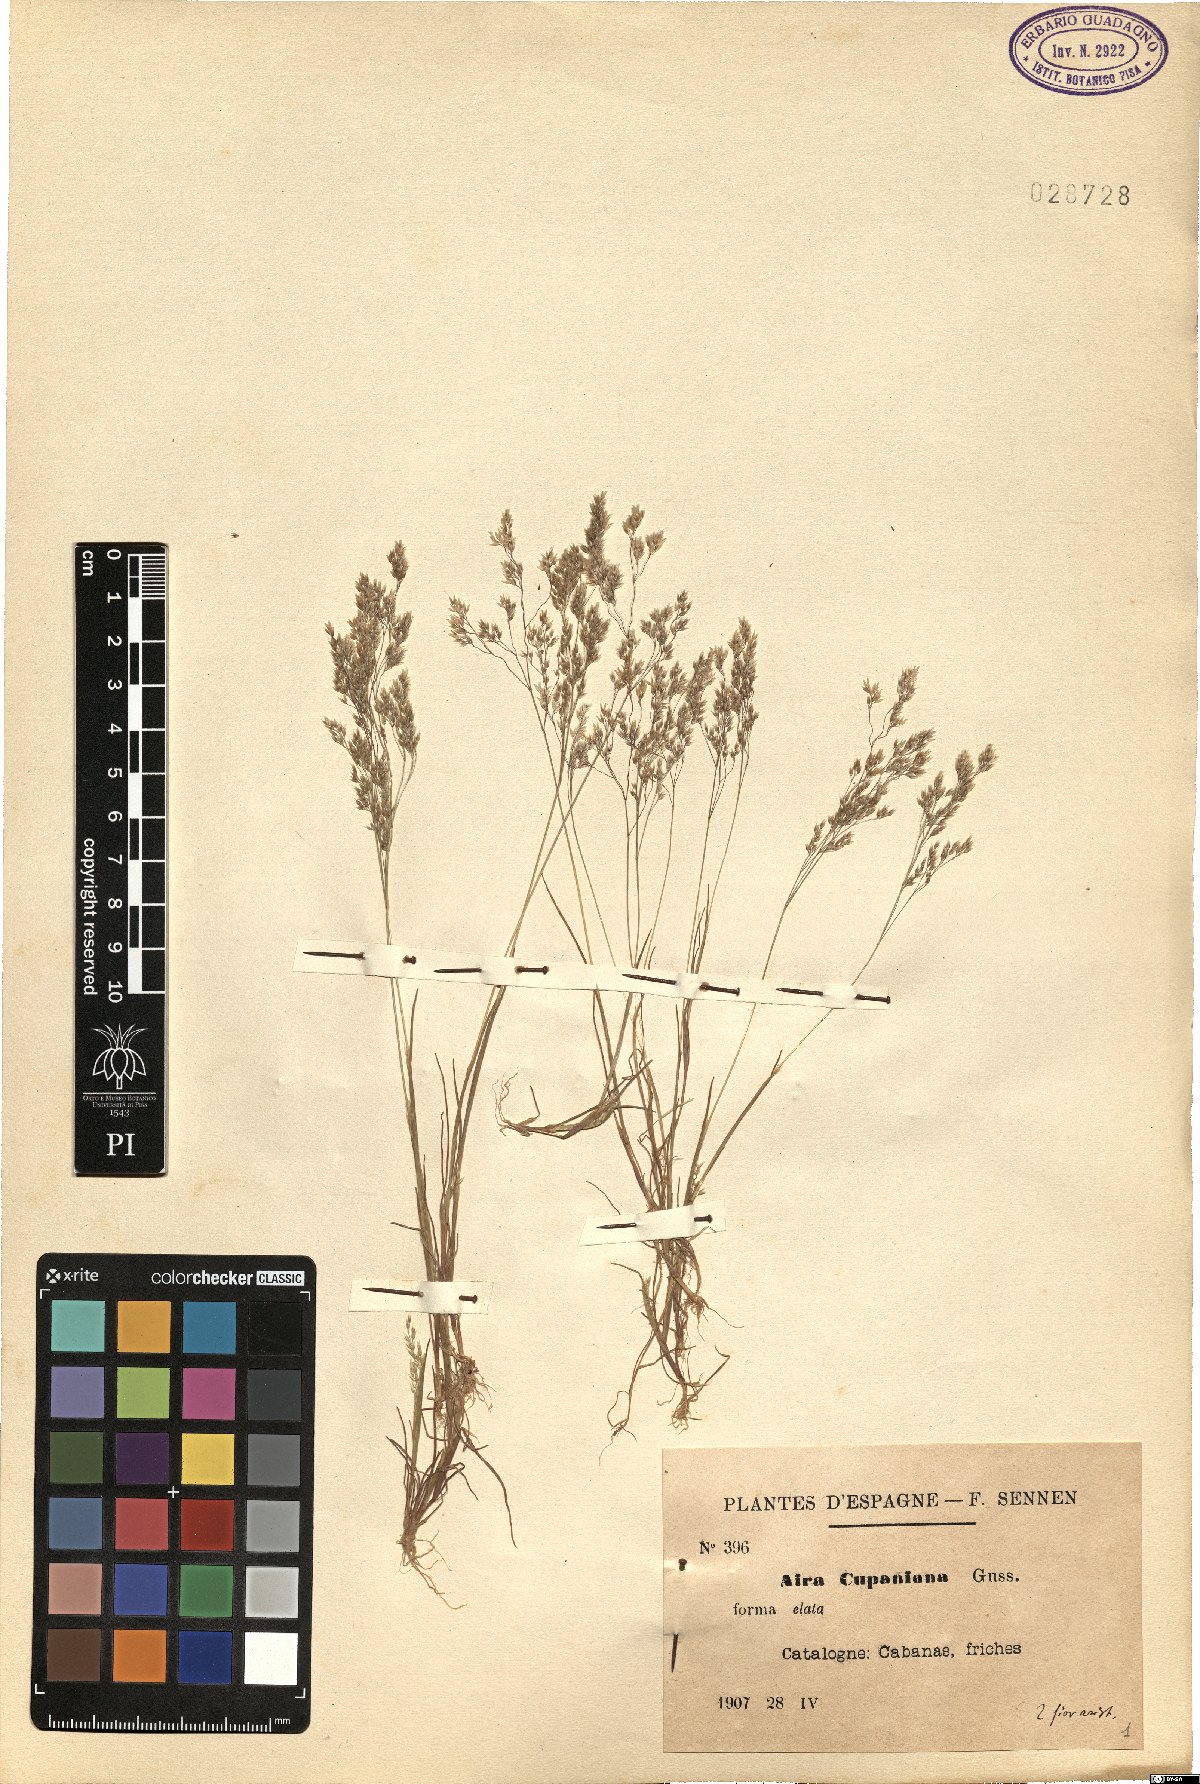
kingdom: Plantae
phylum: Tracheophyta
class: Liliopsida
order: Poales
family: Poaceae
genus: Aira
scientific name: Aira cupaniana
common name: Silver hairgrass
